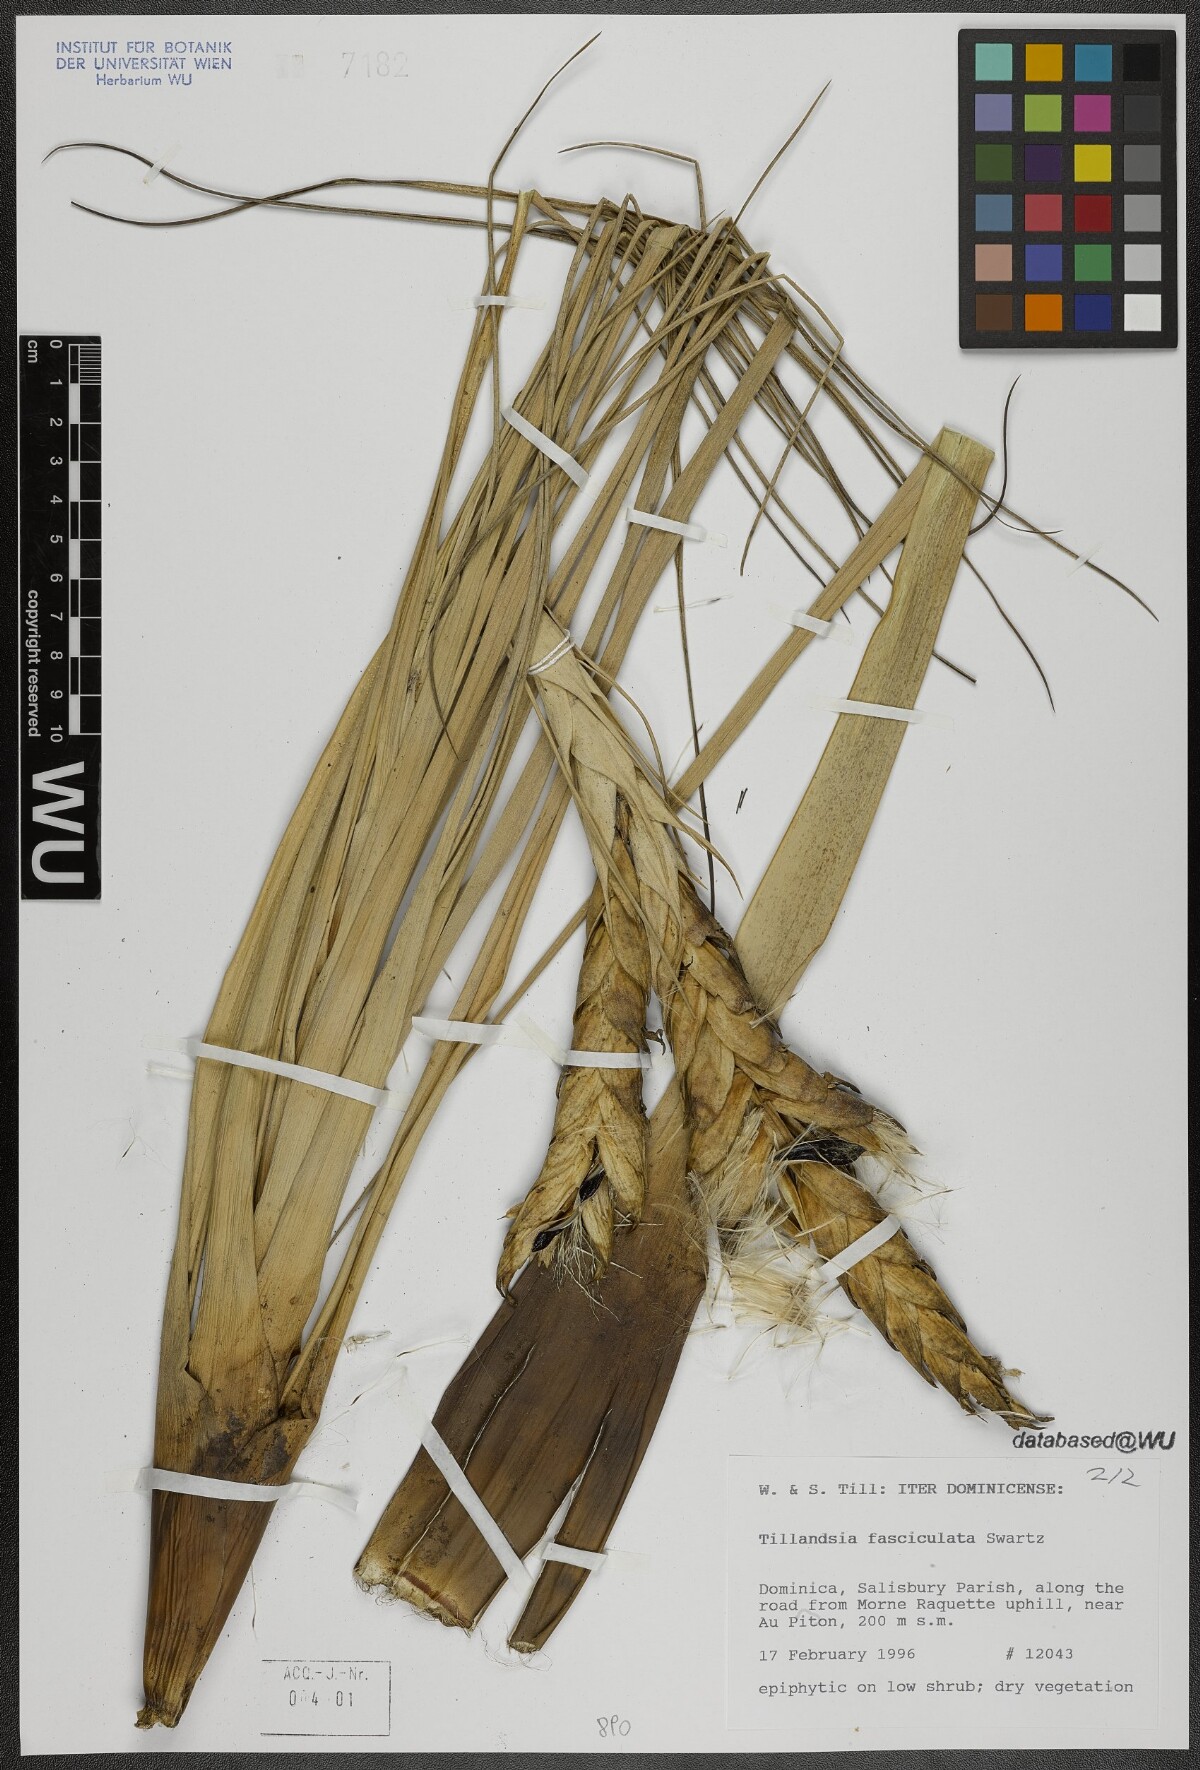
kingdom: Plantae
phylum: Tracheophyta
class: Liliopsida
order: Poales
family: Bromeliaceae
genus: Tillandsia
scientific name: Tillandsia fasciculata
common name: Giant airplant
